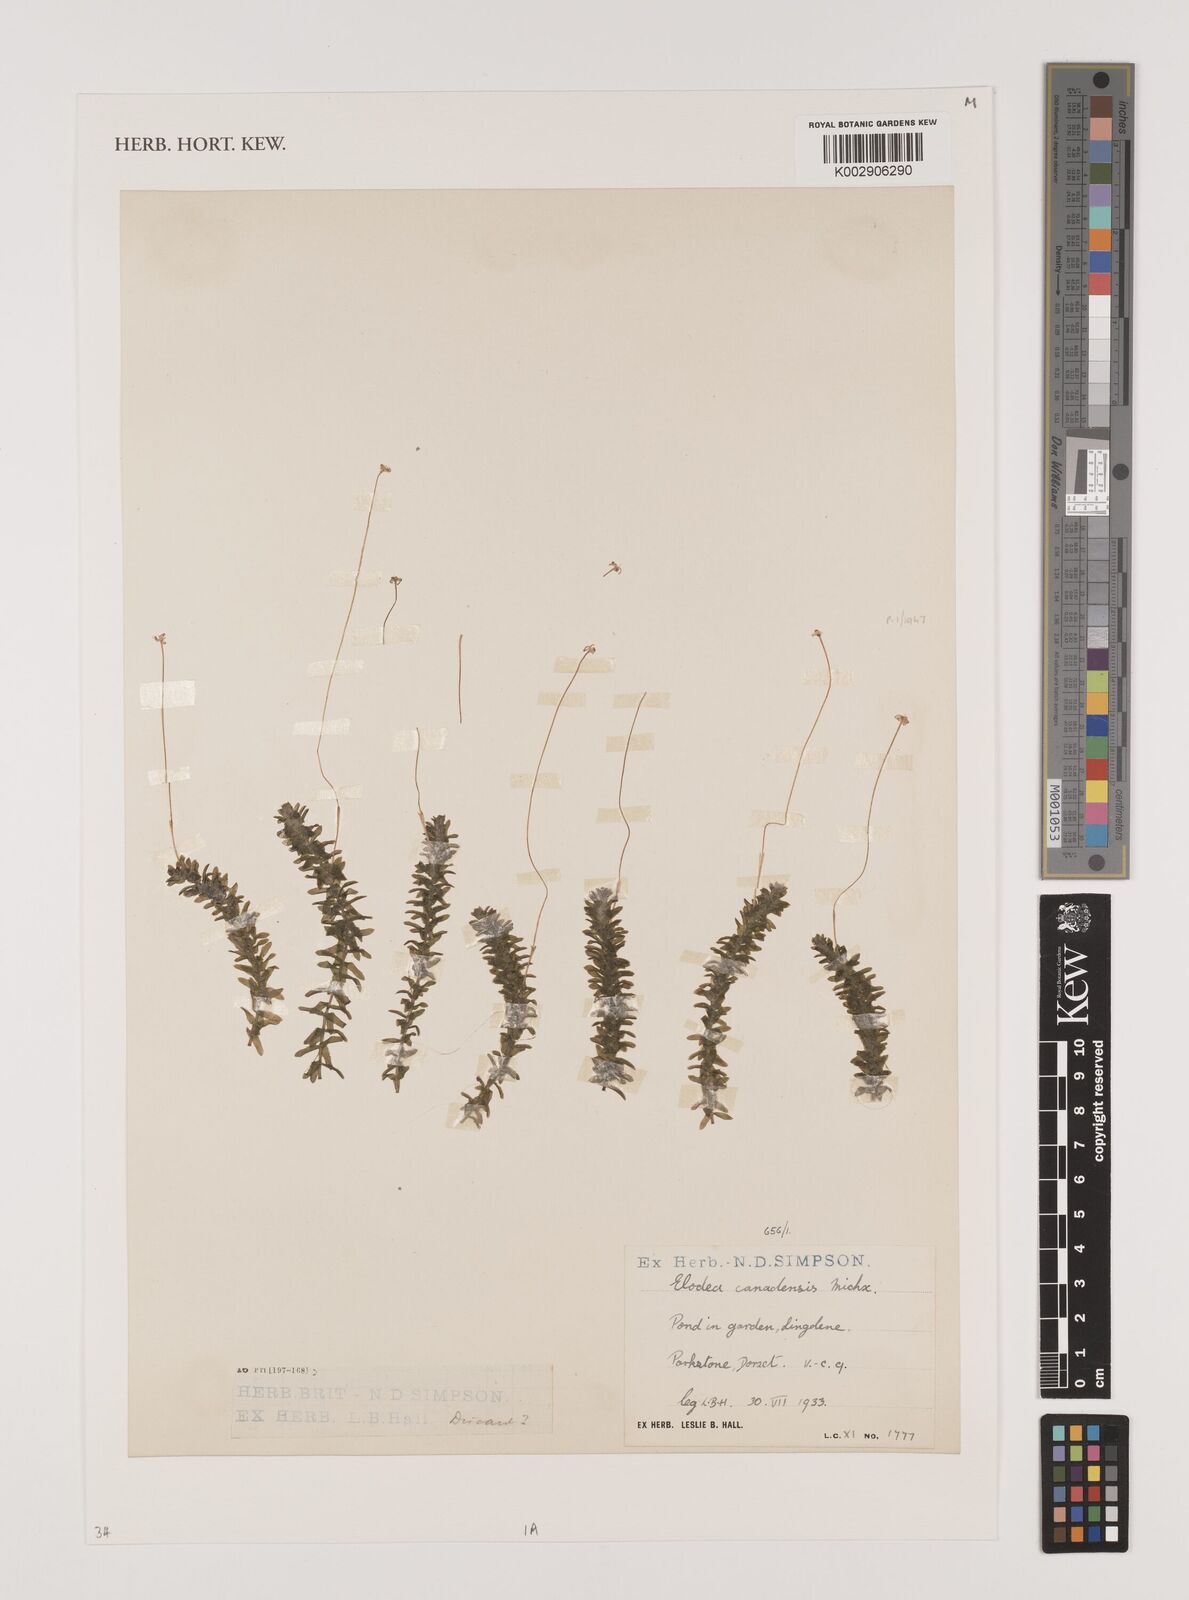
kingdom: Plantae
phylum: Tracheophyta
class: Liliopsida
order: Alismatales
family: Hydrocharitaceae
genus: Elodea
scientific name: Elodea canadensis
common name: Canadian waterweed
